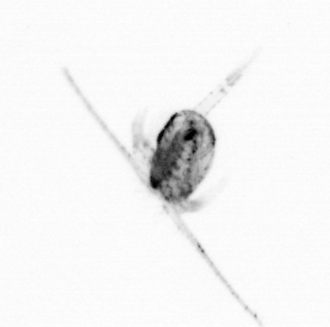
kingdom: Animalia
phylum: Arthropoda
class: Copepoda
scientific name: Copepoda
